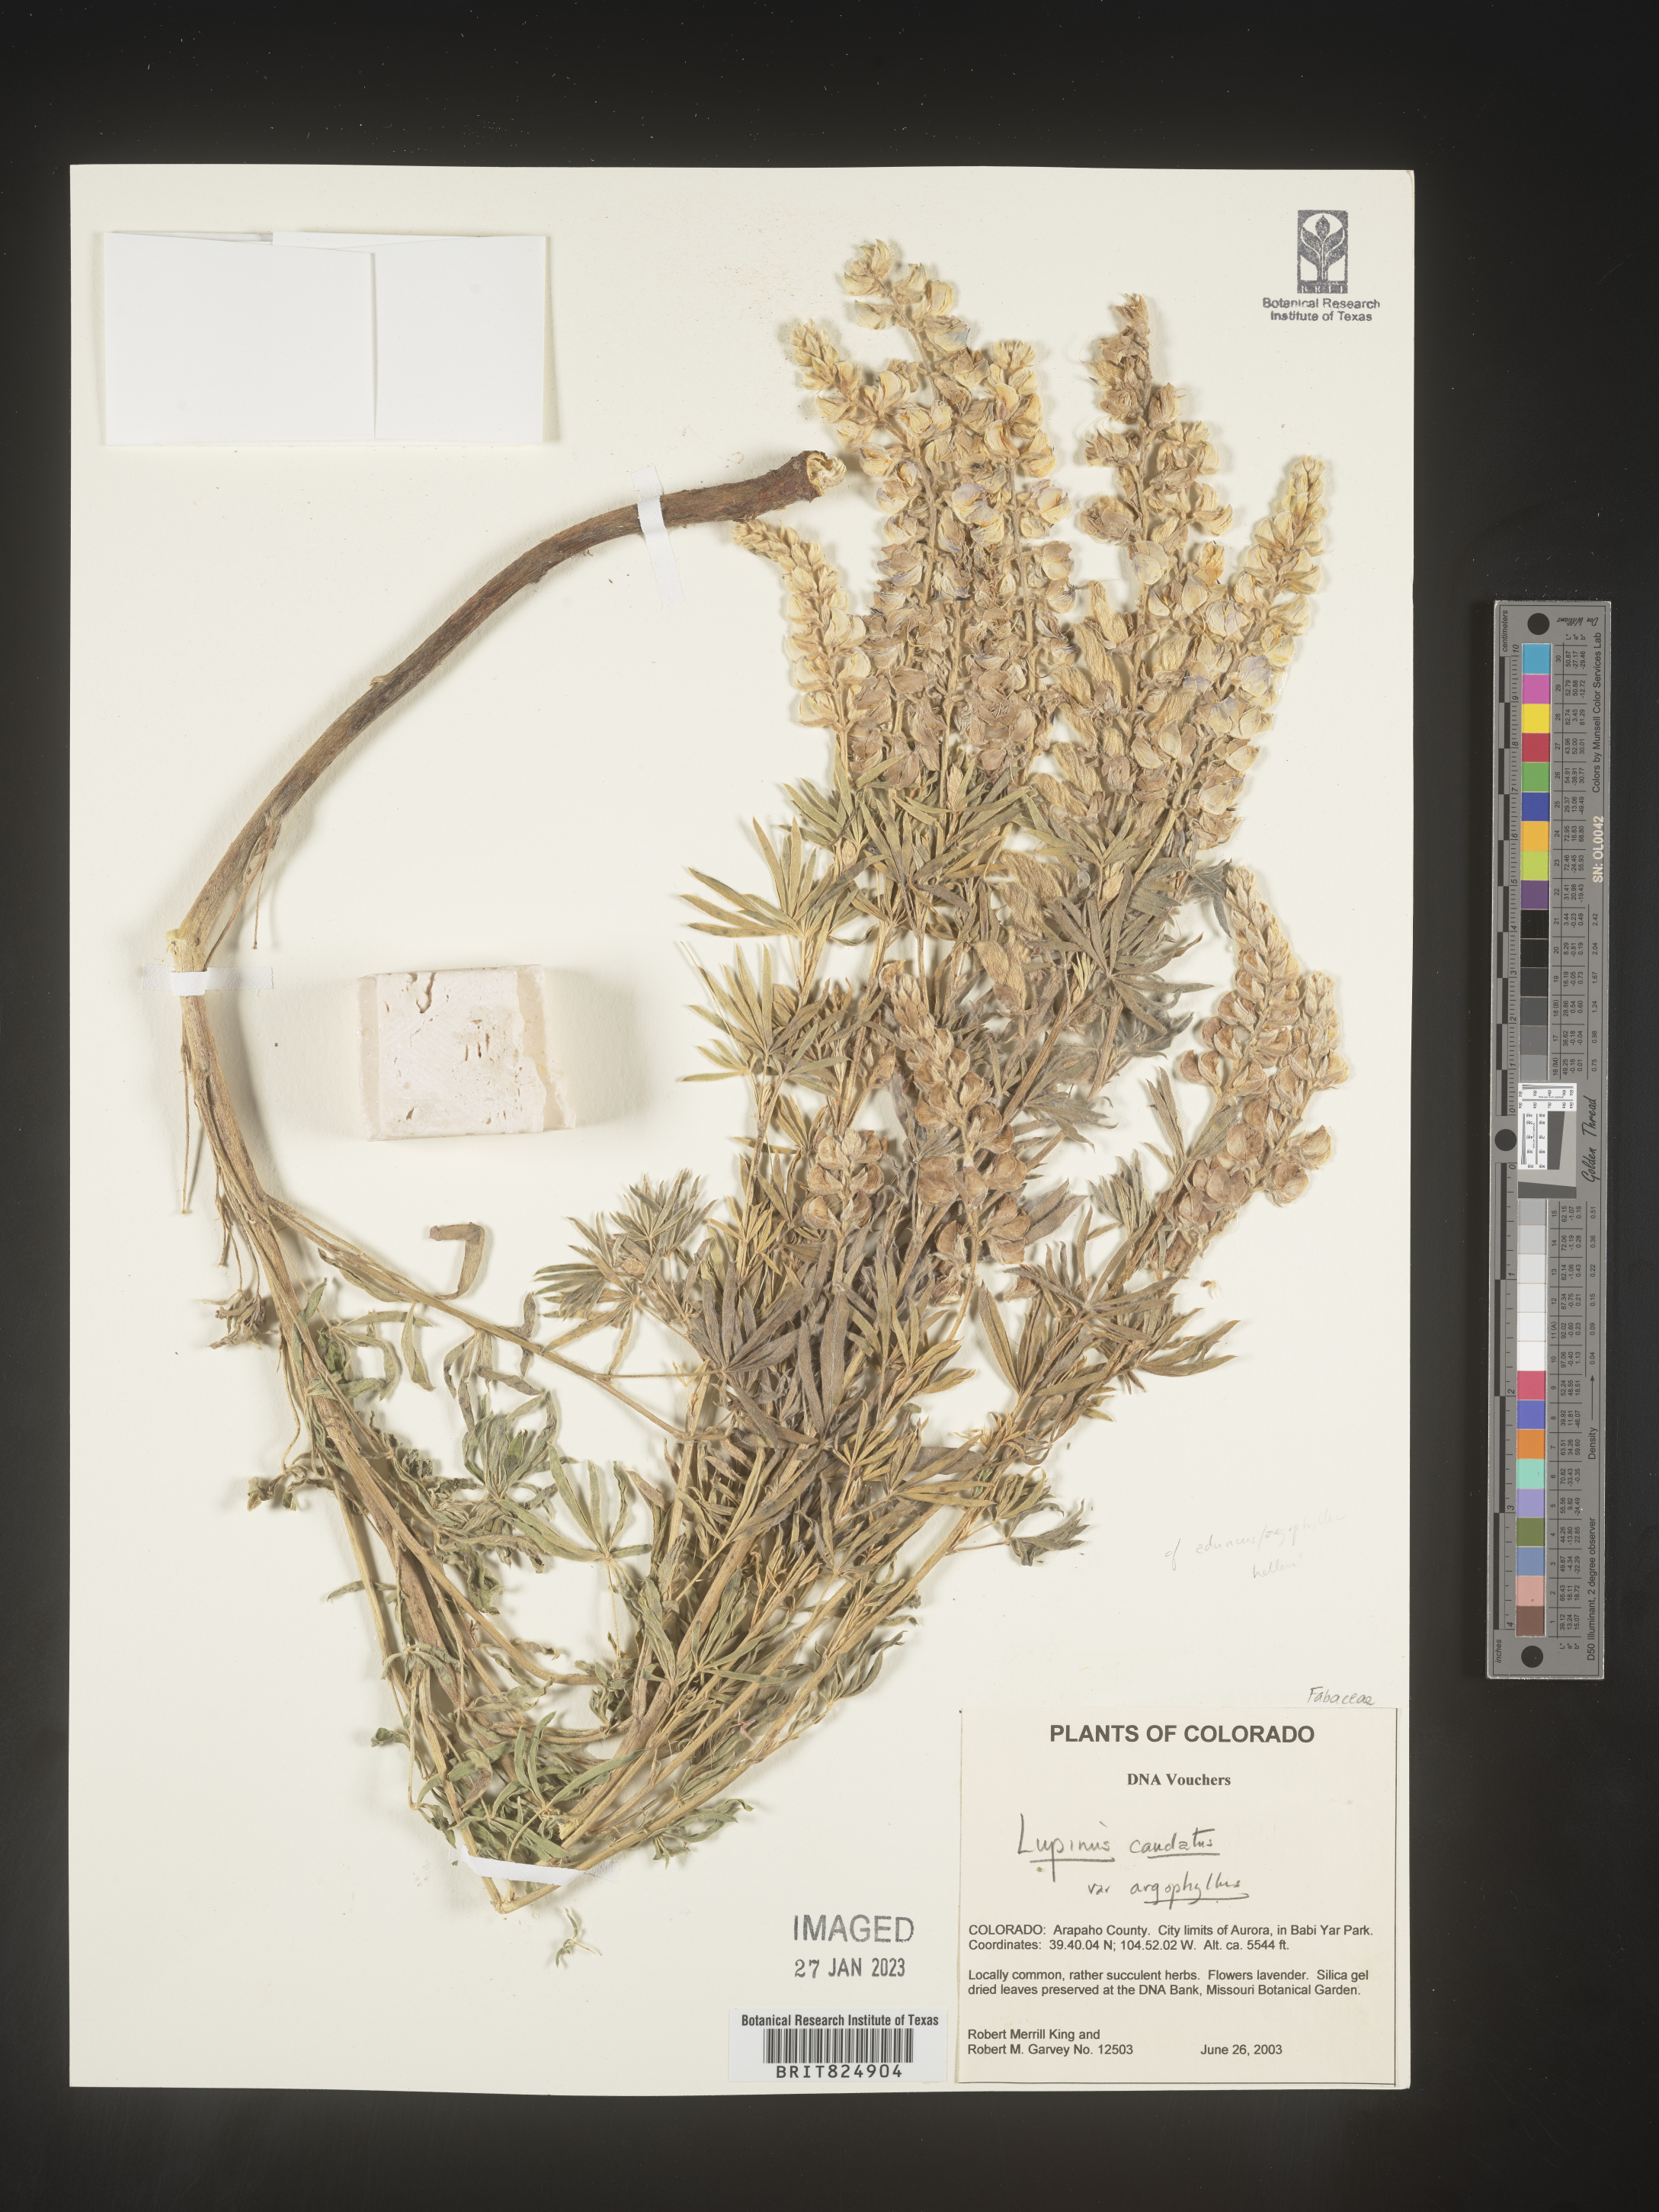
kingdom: Plantae
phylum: Tracheophyta
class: Magnoliopsida
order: Fabales
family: Fabaceae
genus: Lupinus
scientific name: Lupinus caudatus
